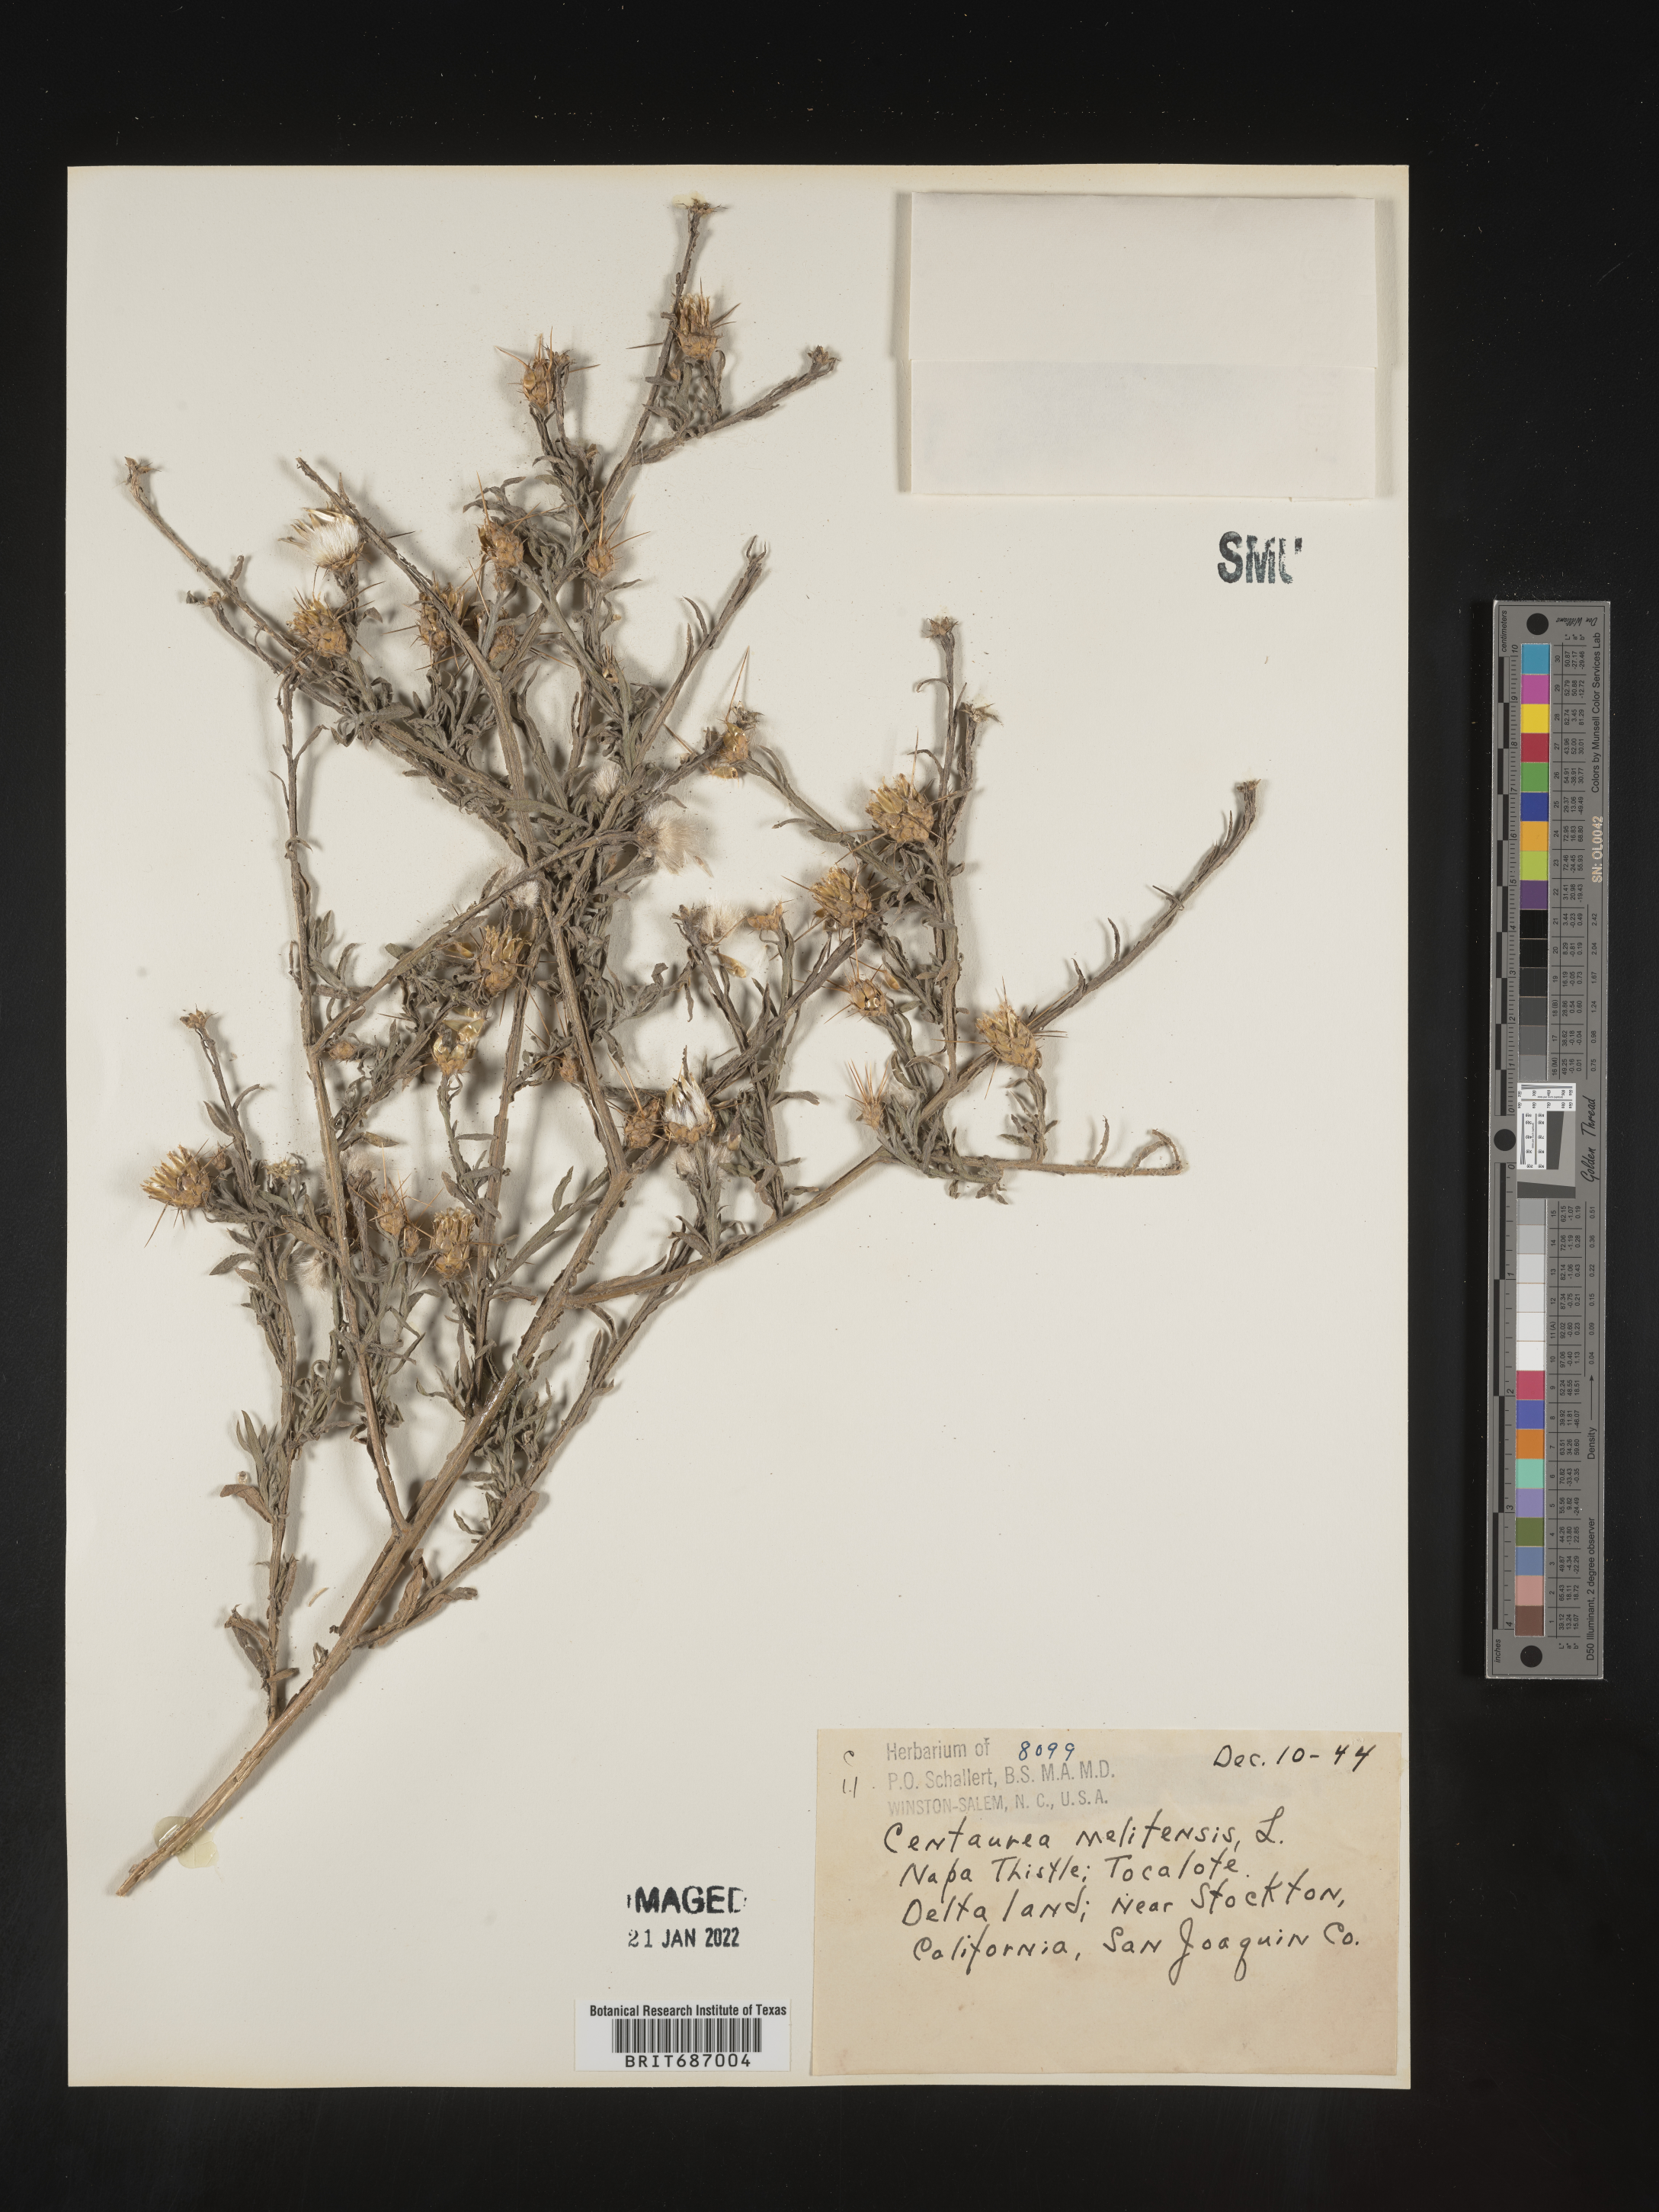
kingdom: Plantae
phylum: Tracheophyta
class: Magnoliopsida
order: Asterales
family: Asteraceae
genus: Centaurea
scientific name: Centaurea melitensis
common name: Maltese star-thistle
